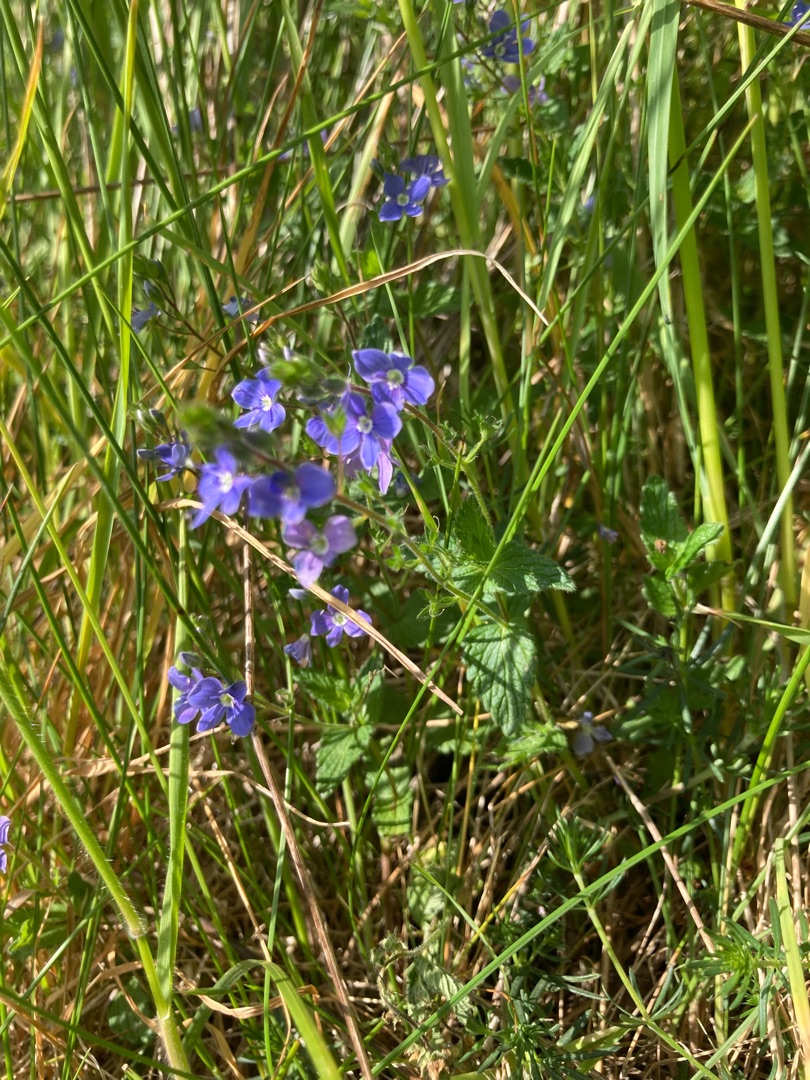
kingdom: Plantae
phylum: Tracheophyta
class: Magnoliopsida
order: Lamiales
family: Plantaginaceae
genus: Veronica
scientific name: Veronica chamaedrys
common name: Tveskægget ærenpris
